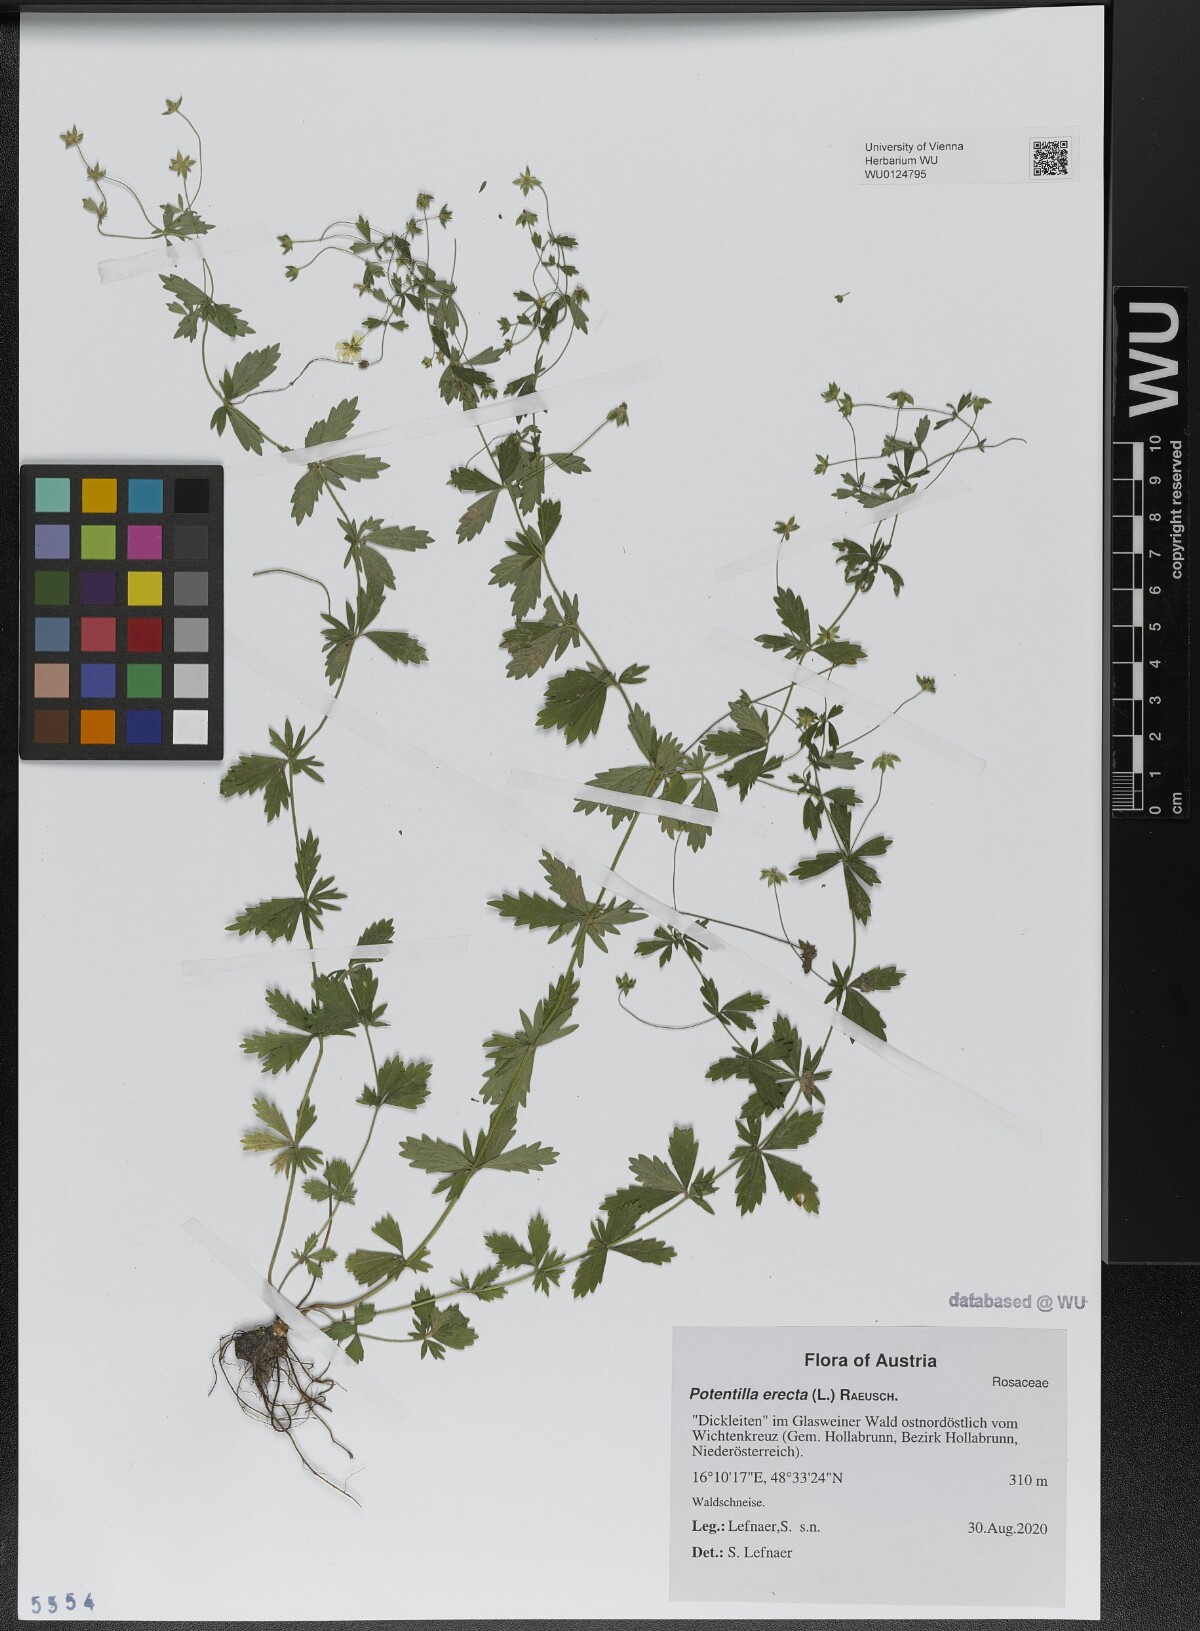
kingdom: Plantae
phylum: Tracheophyta
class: Magnoliopsida
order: Rosales
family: Rosaceae
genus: Potentilla
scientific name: Potentilla erecta
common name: Tormentil
